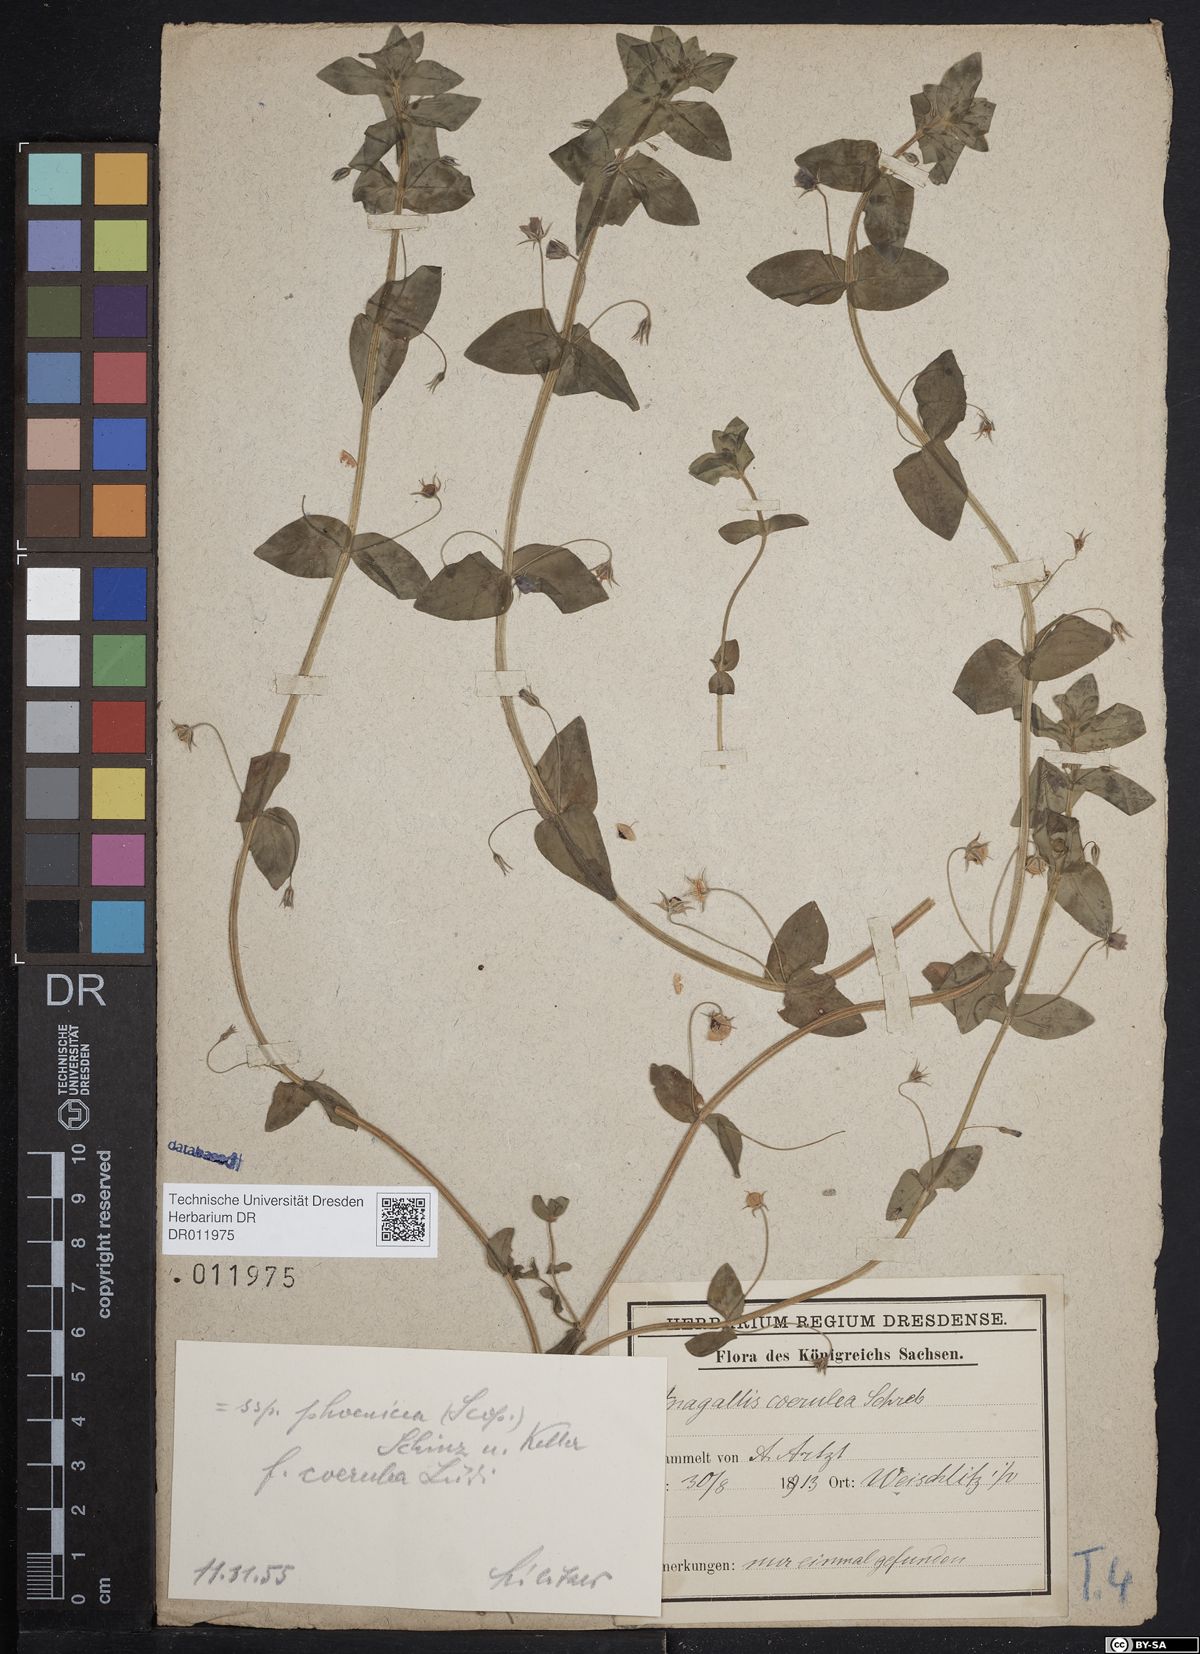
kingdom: Plantae
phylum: Tracheophyta
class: Magnoliopsida
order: Ericales
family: Primulaceae
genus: Lysimachia
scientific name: Lysimachia arvensis
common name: Scarlet pimpernel
